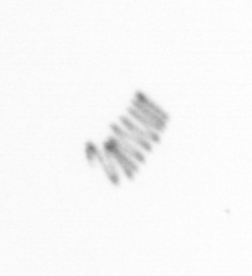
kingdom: Chromista
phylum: Ochrophyta
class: Bacillariophyceae
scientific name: Bacillariophyceae
